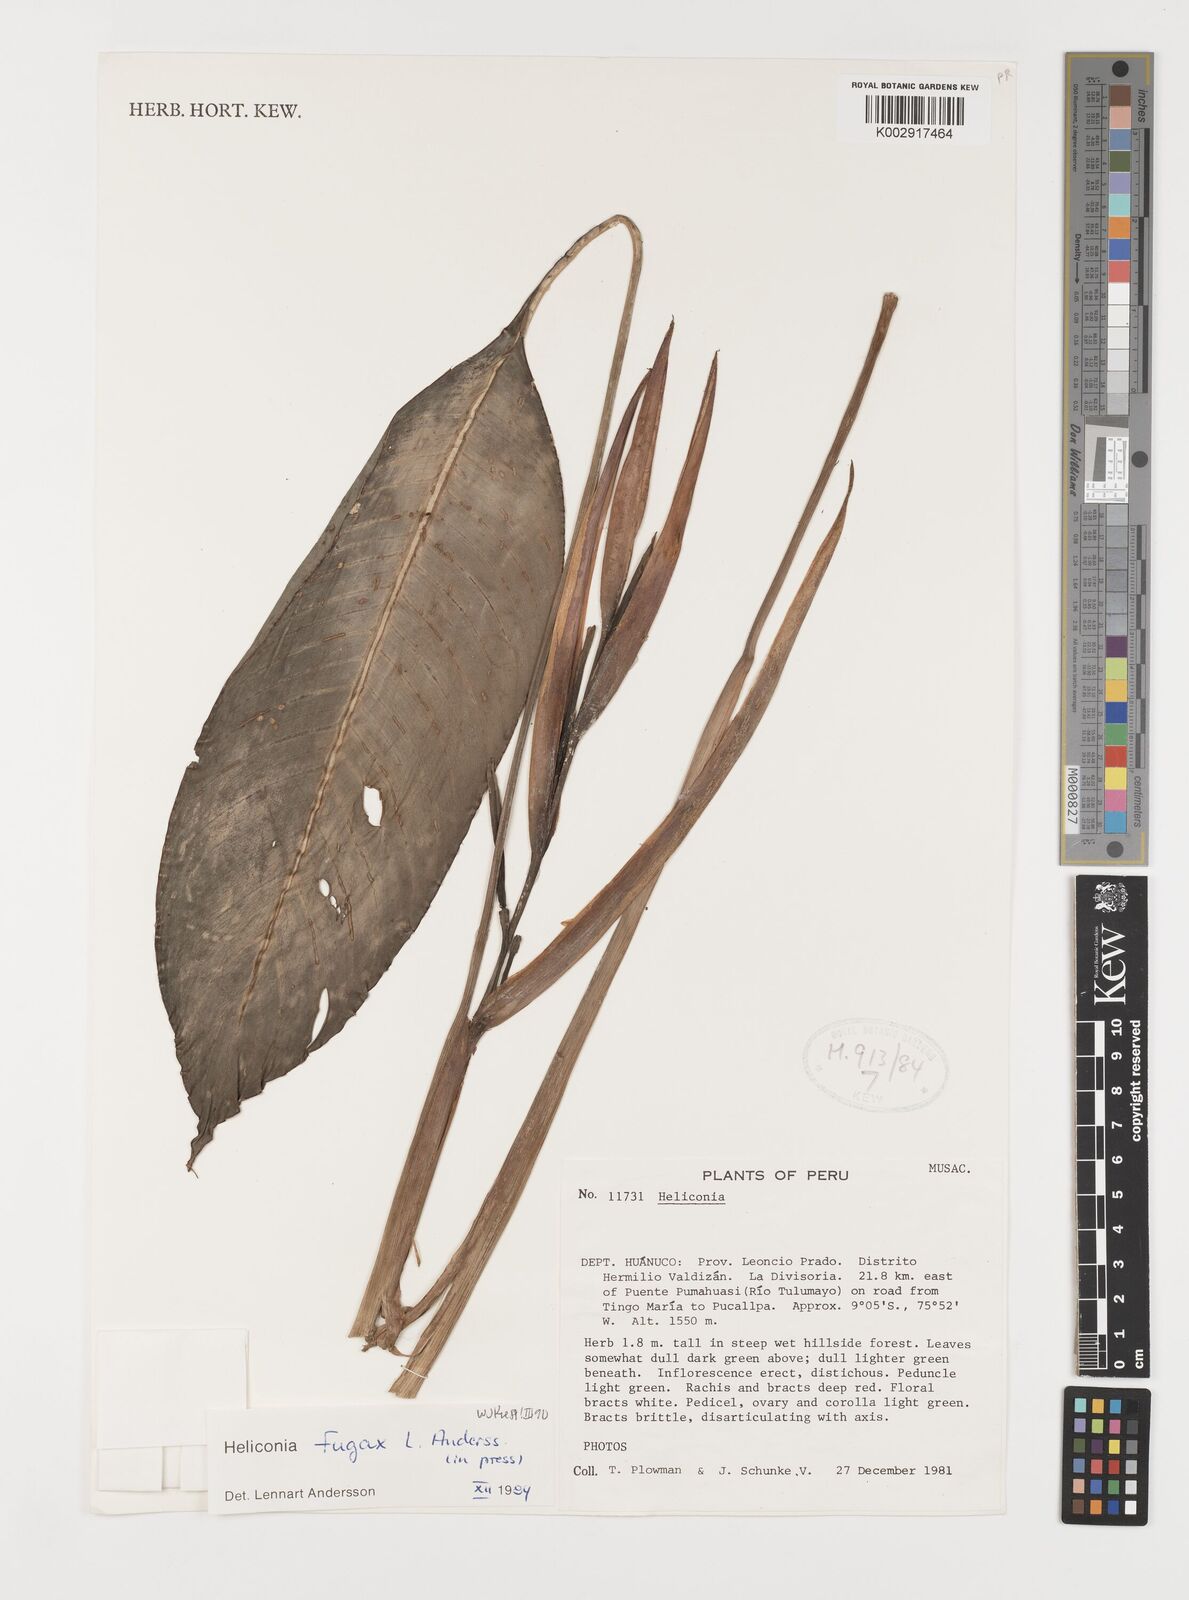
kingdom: Plantae
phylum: Tracheophyta
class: Liliopsida
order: Zingiberales
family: Heliconiaceae
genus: Heliconia
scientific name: Heliconia fugax
